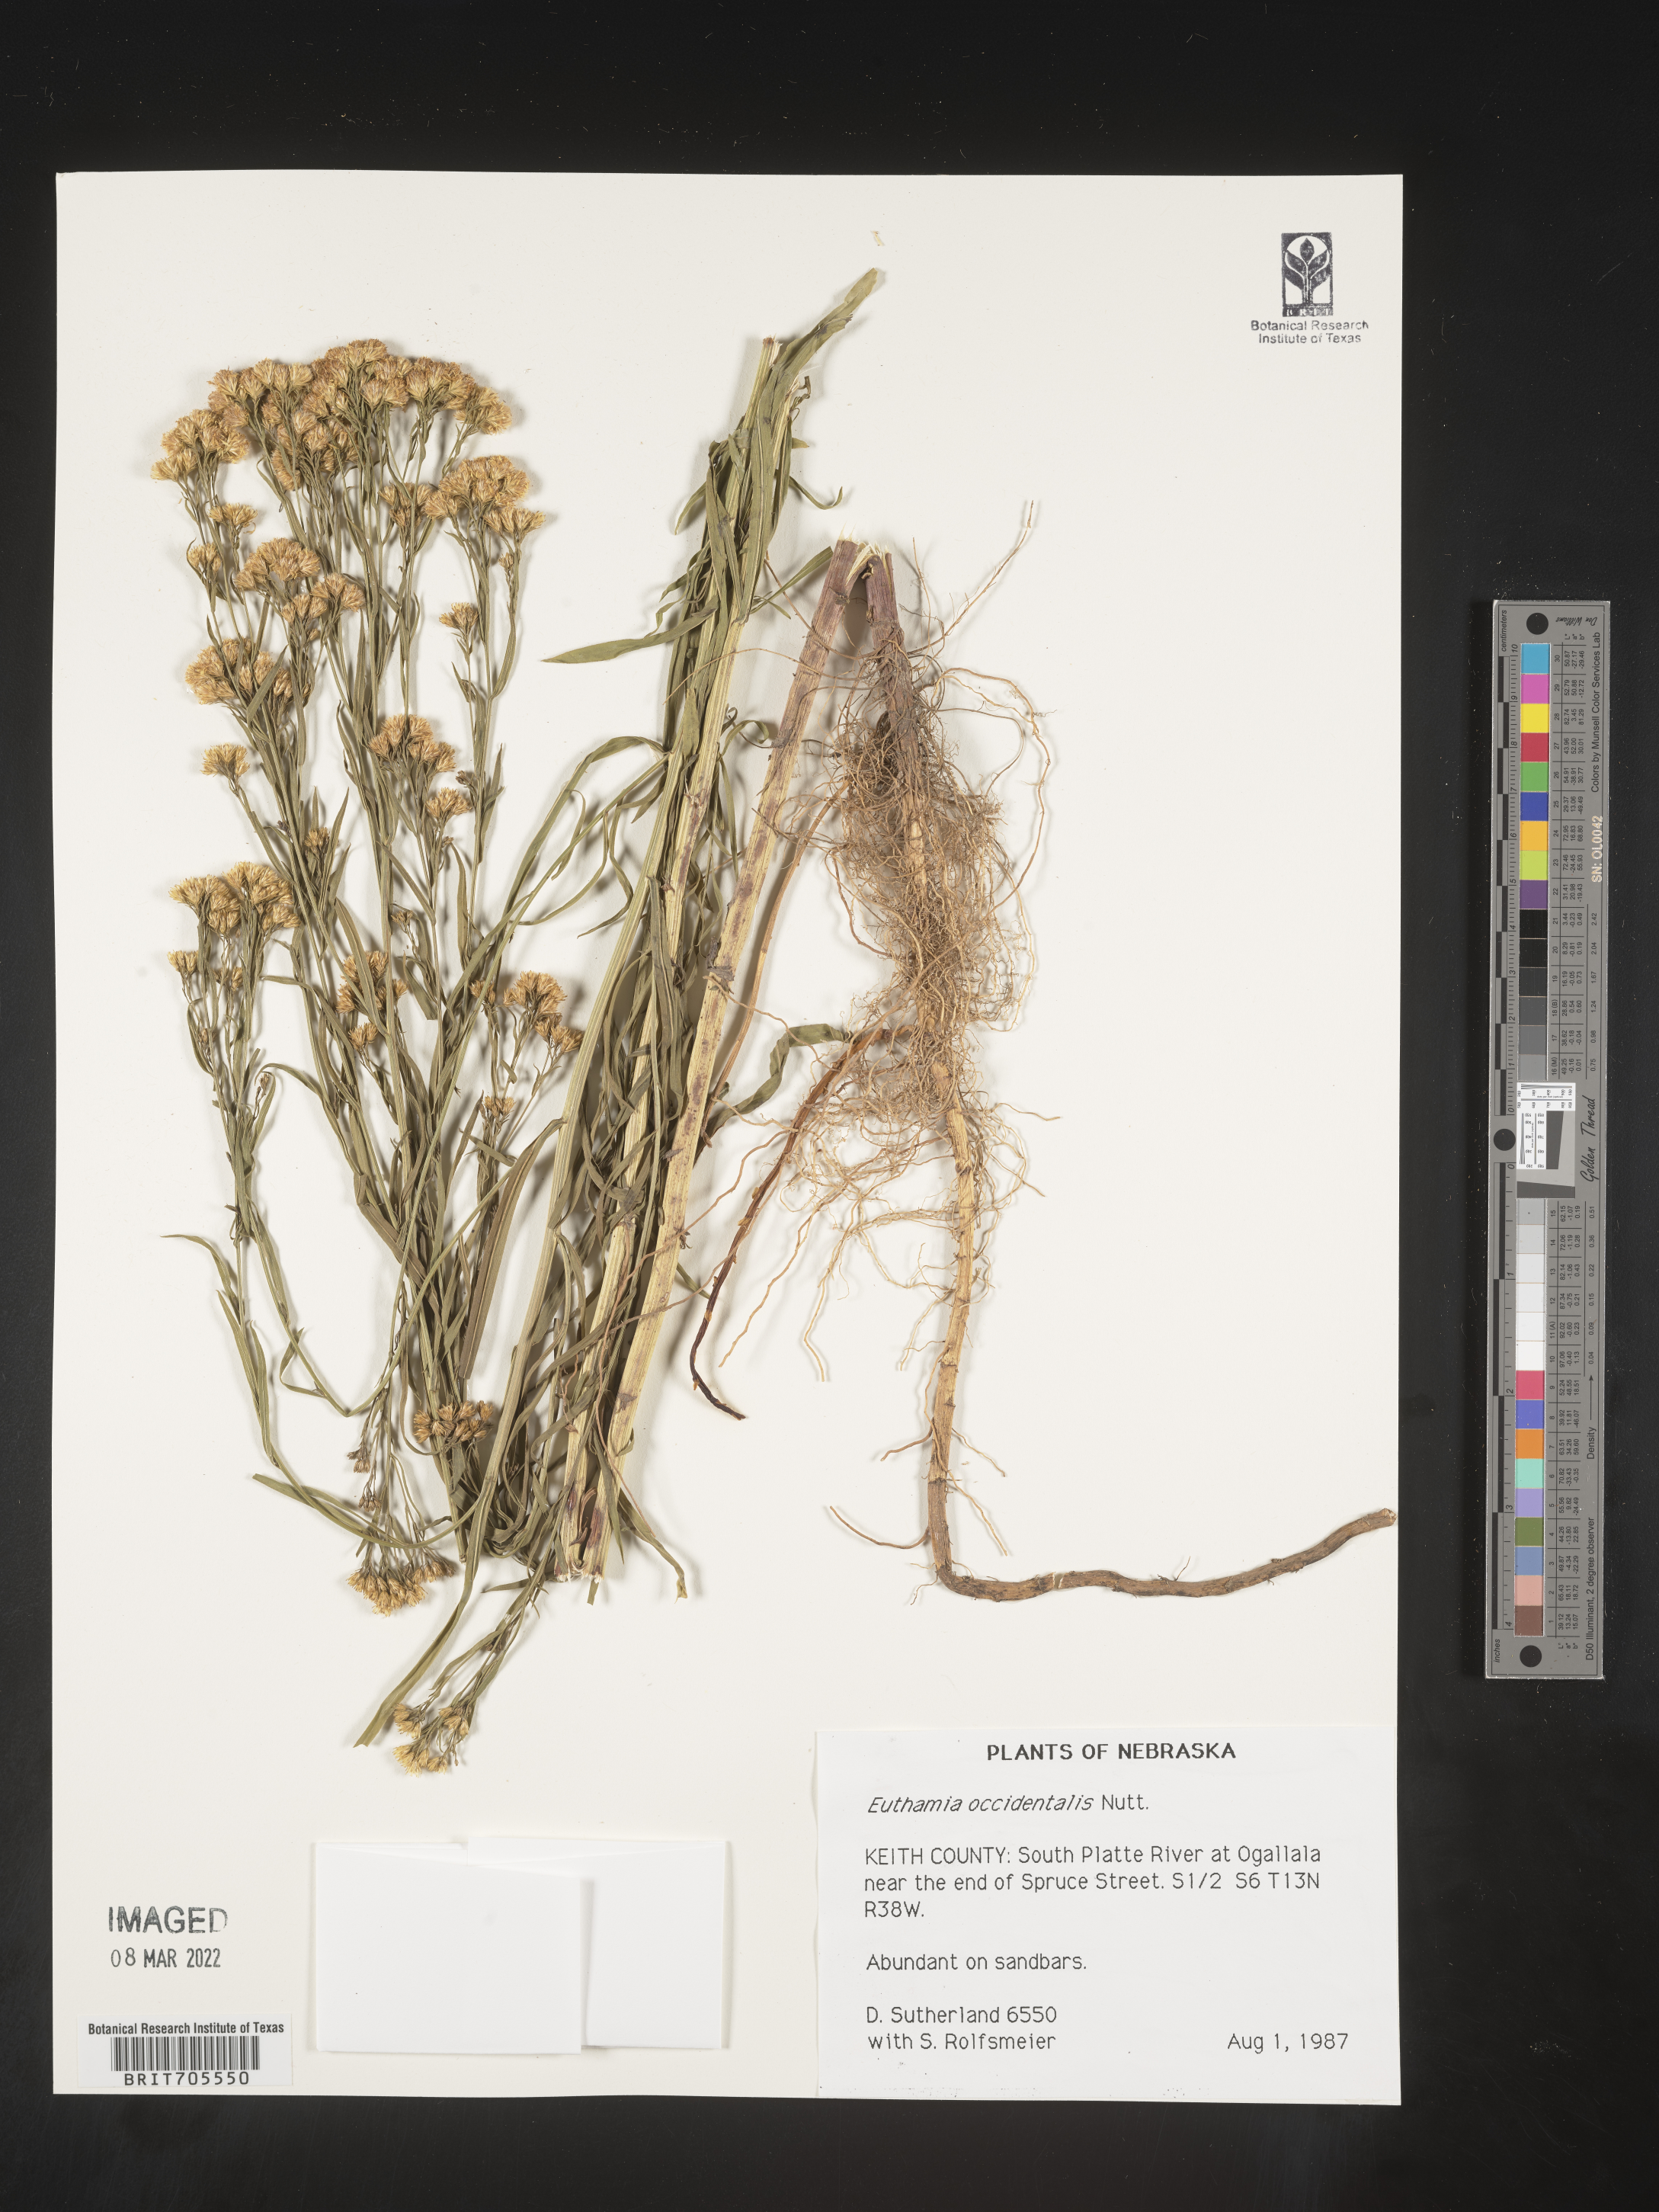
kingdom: Plantae
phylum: Tracheophyta
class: Magnoliopsida
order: Asterales
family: Asteraceae
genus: Euthamia
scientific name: Euthamia occidentalis
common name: Western goldentop
